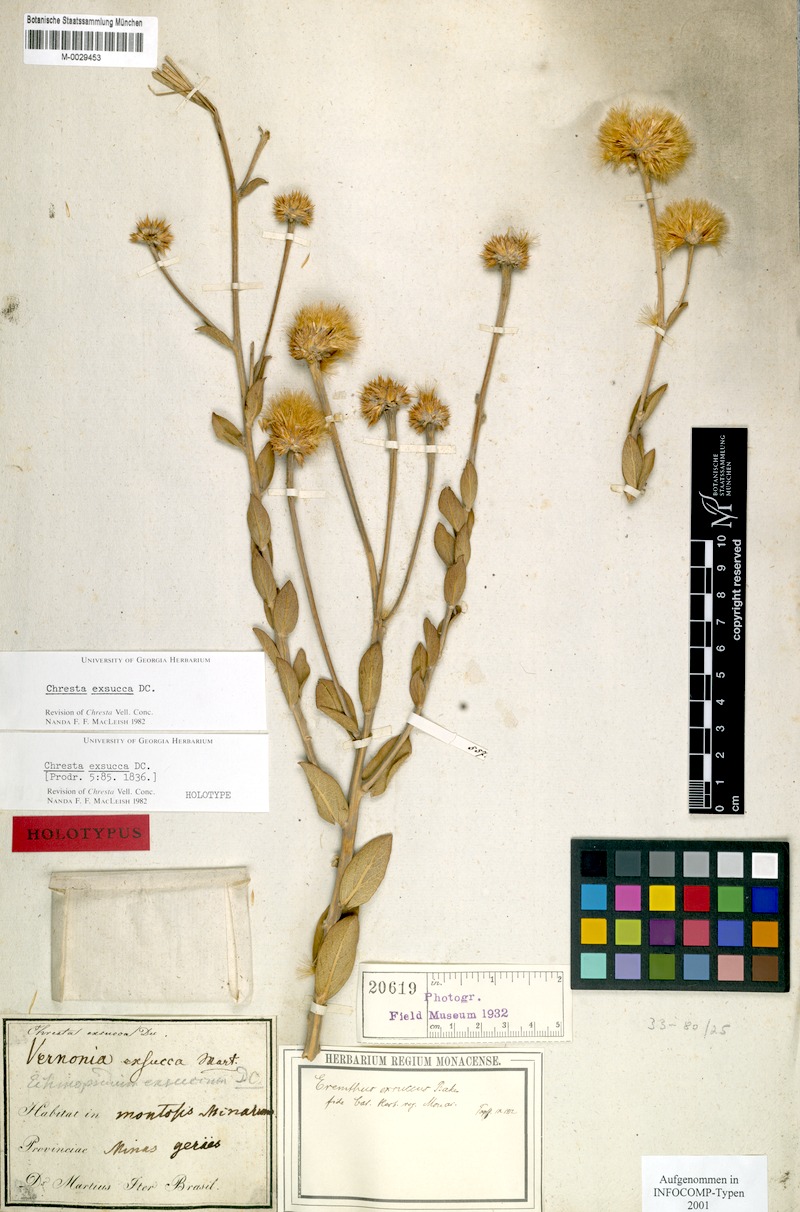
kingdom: Plantae
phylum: Tracheophyta
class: Magnoliopsida
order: Asterales
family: Asteraceae
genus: Chresta
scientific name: Chresta exsucca
